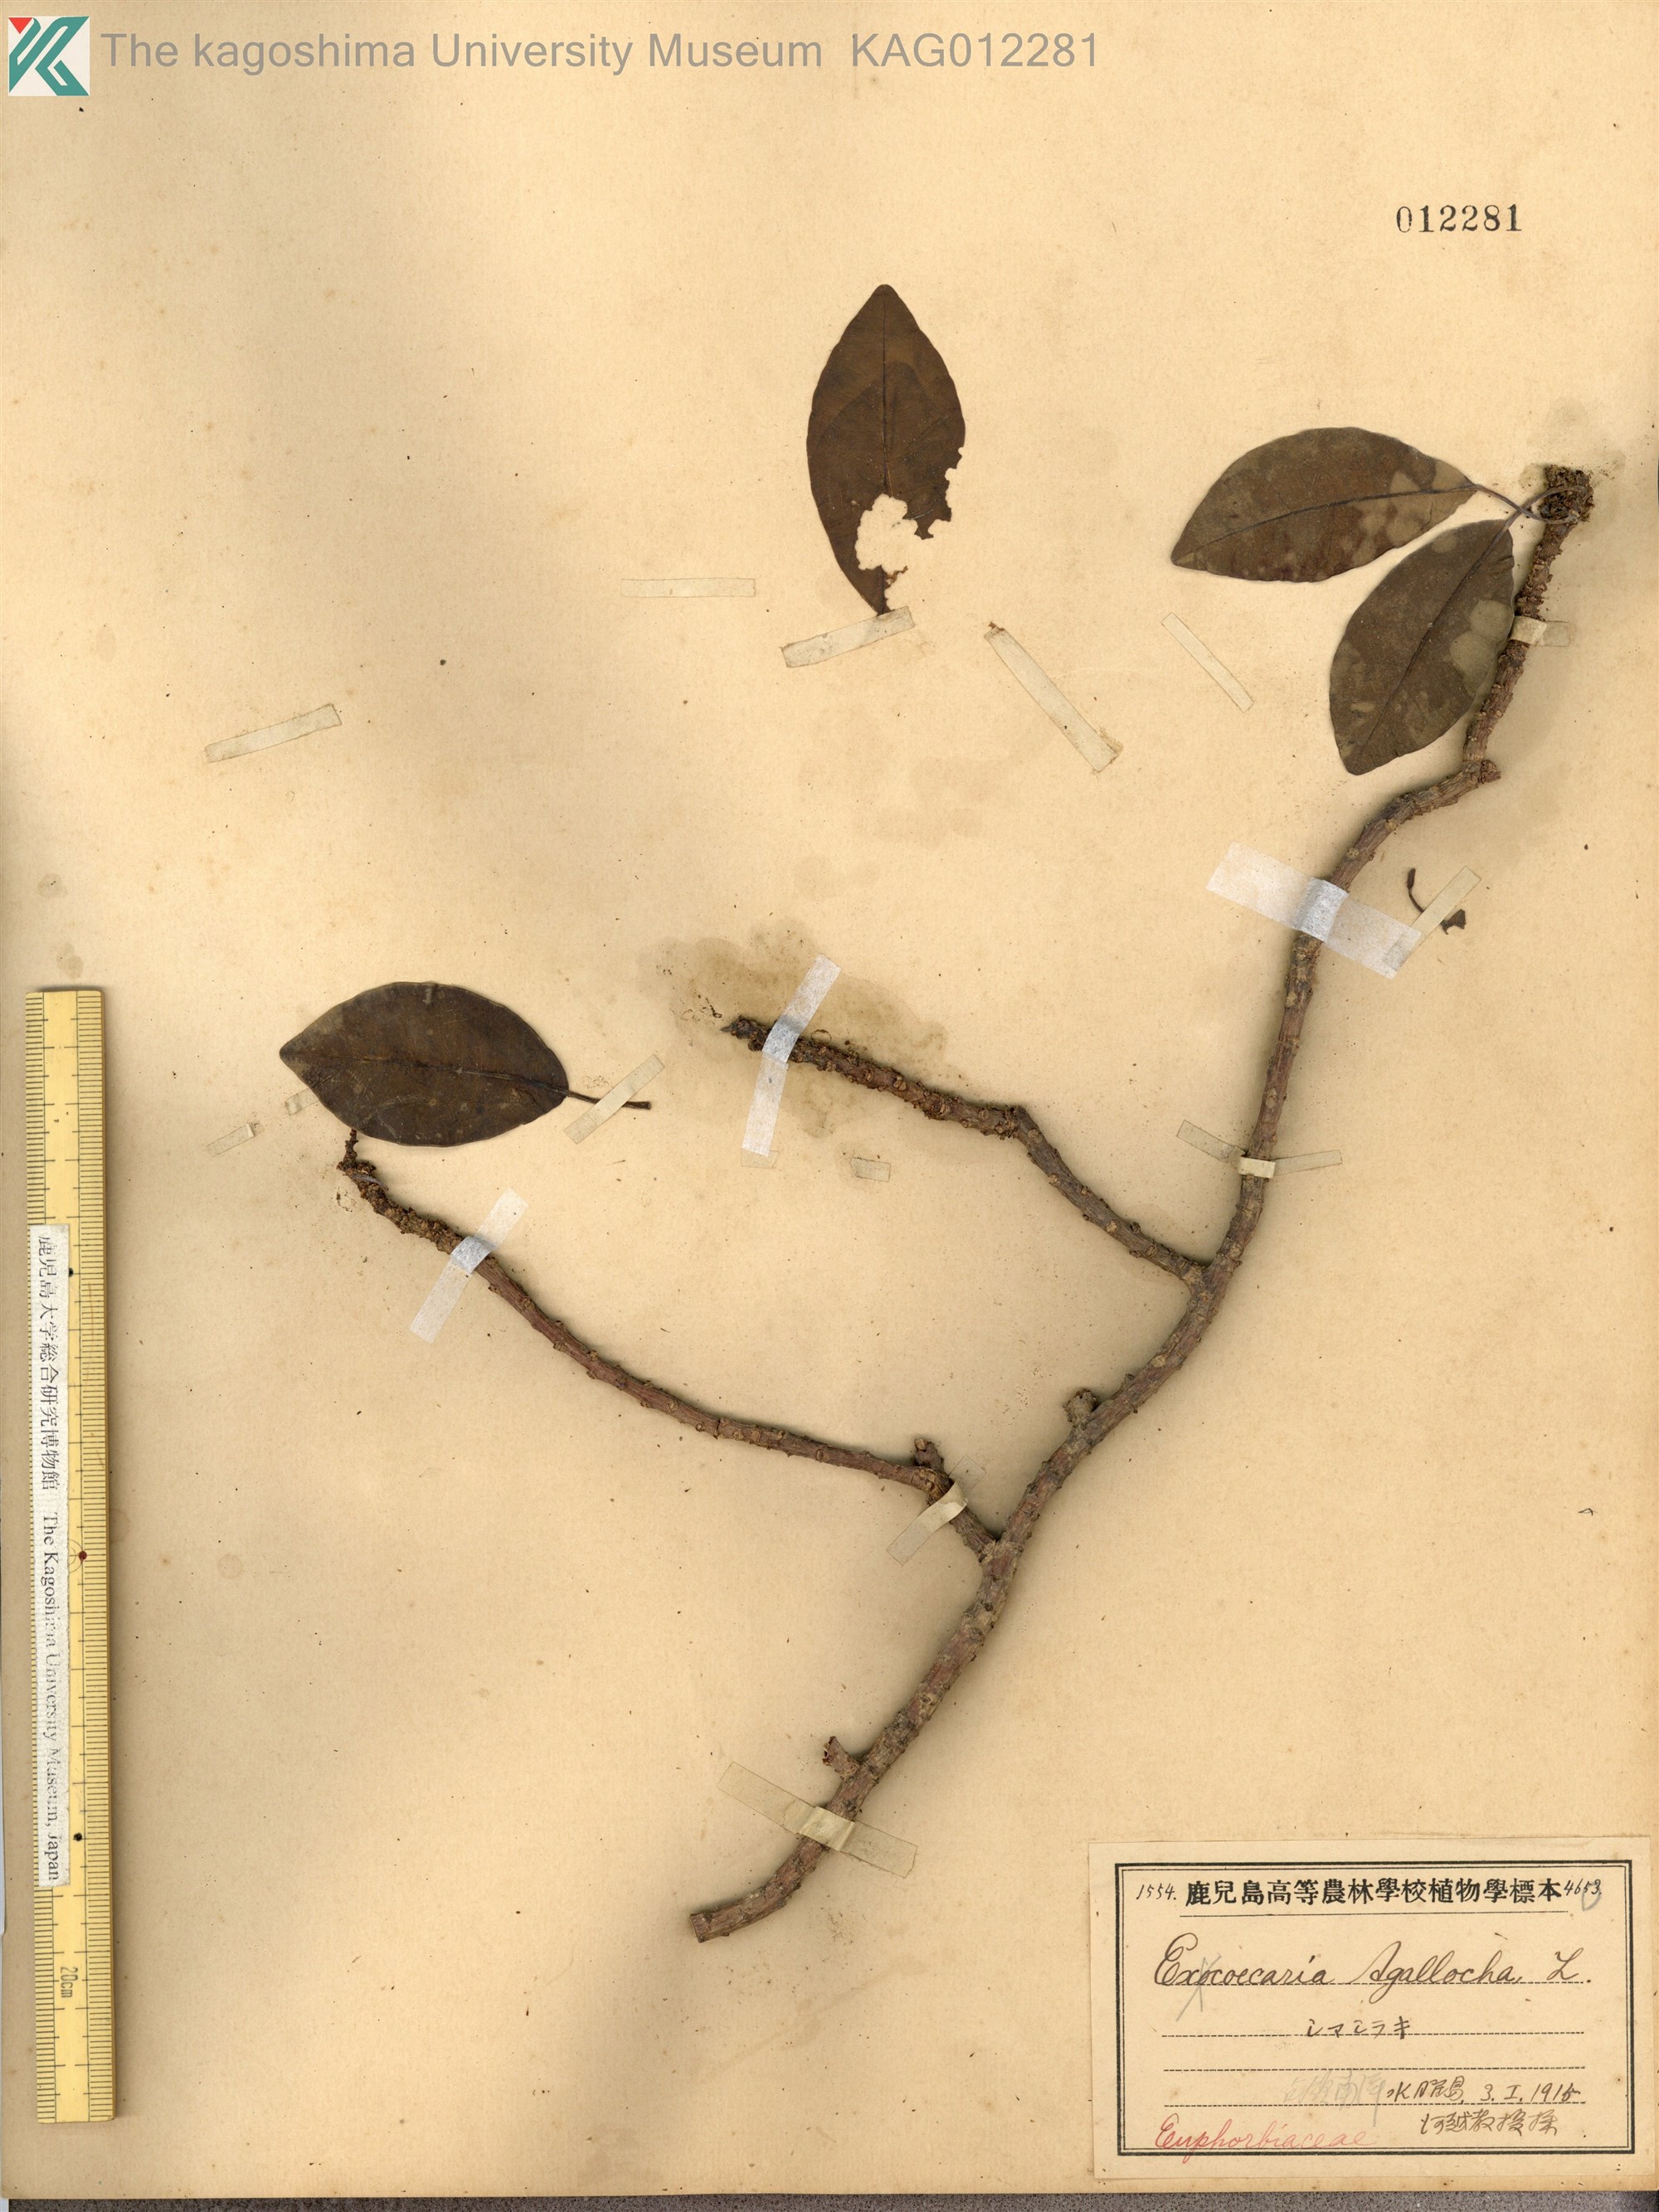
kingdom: Plantae
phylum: Tracheophyta
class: Magnoliopsida
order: Malpighiales
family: Euphorbiaceae
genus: Excoecaria
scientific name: Excoecaria agallocha
